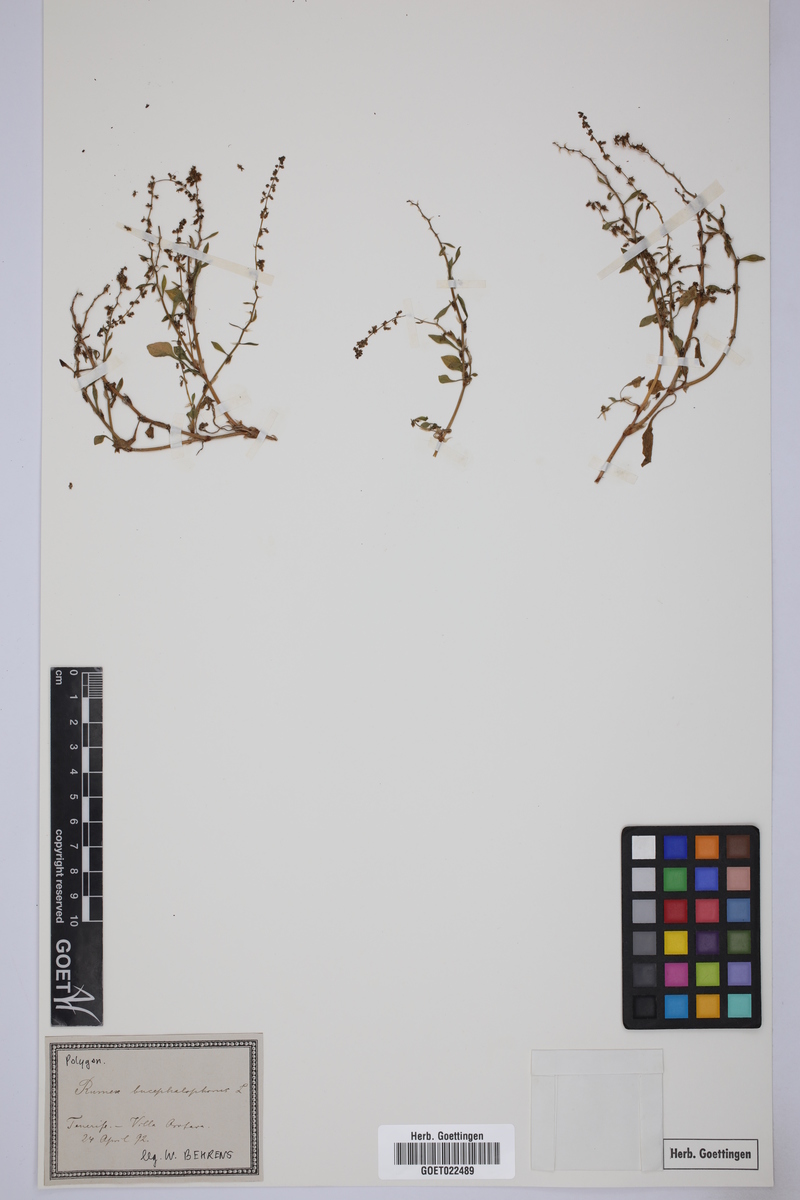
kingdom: Plantae
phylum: Tracheophyta
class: Magnoliopsida
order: Caryophyllales
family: Polygonaceae
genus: Rumex
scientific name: Rumex bucephalophorus
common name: Red dock
